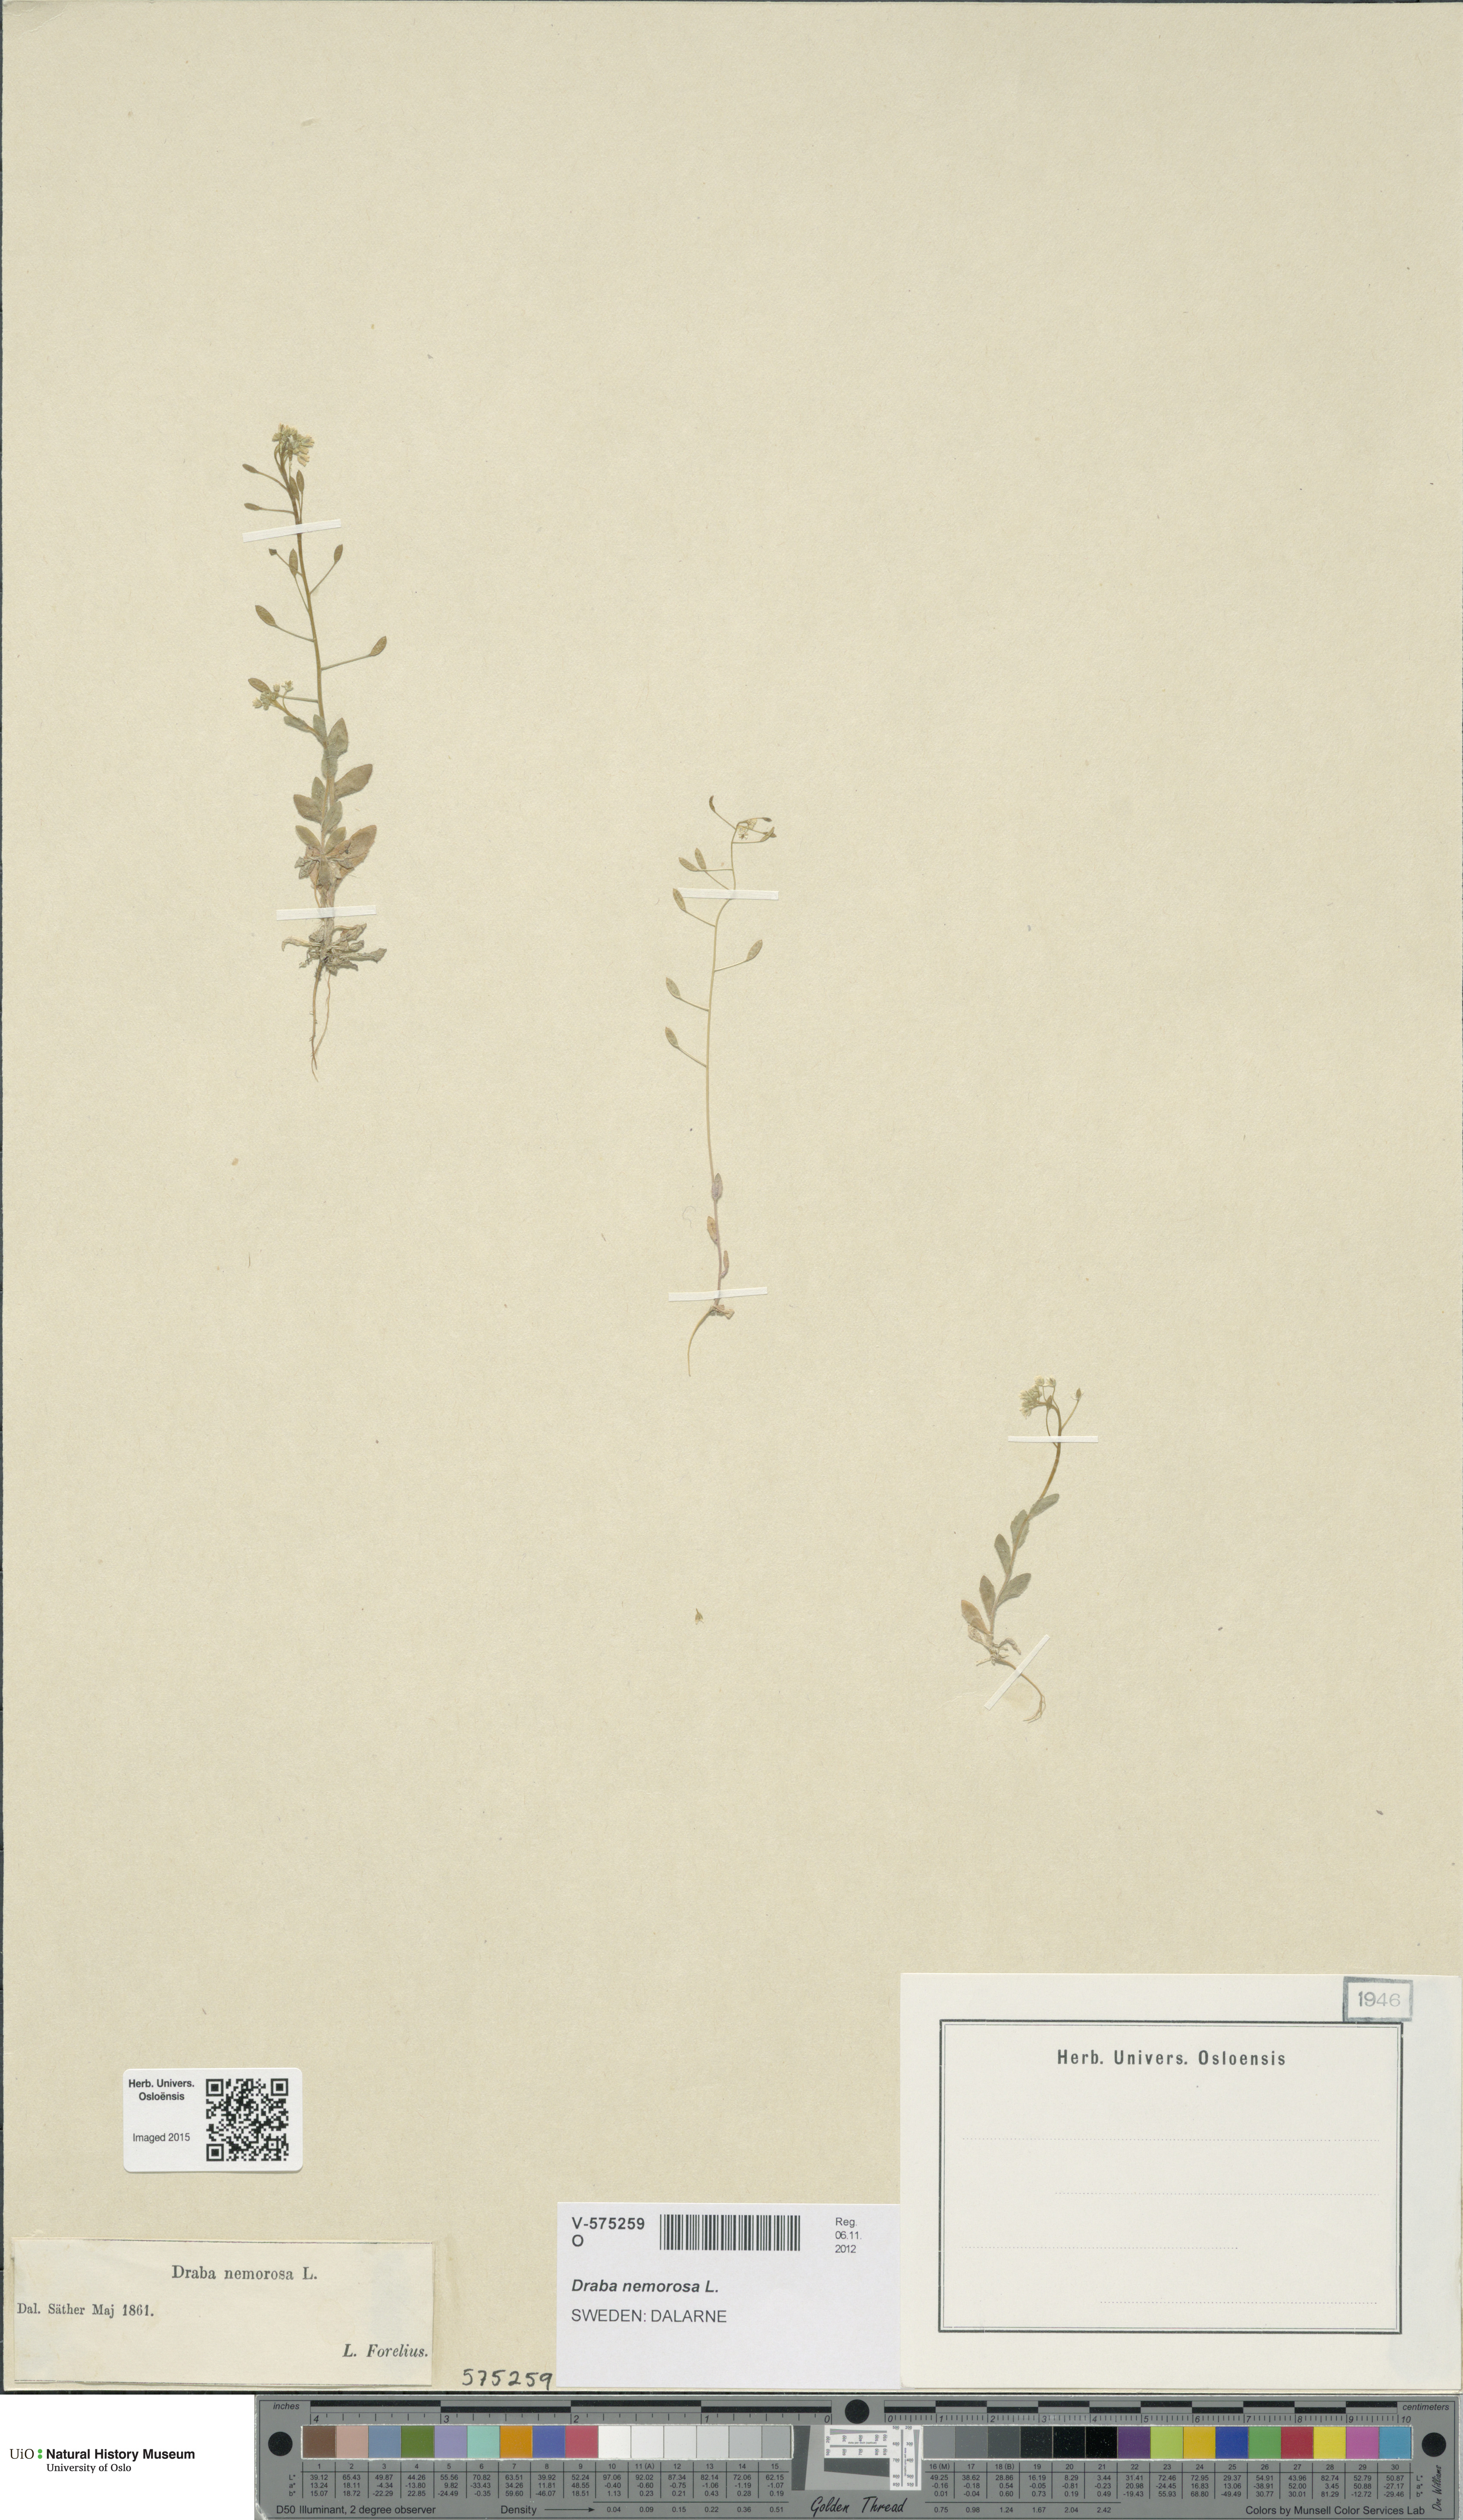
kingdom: Plantae
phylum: Tracheophyta
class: Magnoliopsida
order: Brassicales
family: Brassicaceae
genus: Draba
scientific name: Draba nemorosa
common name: Wood whitlow-grass
